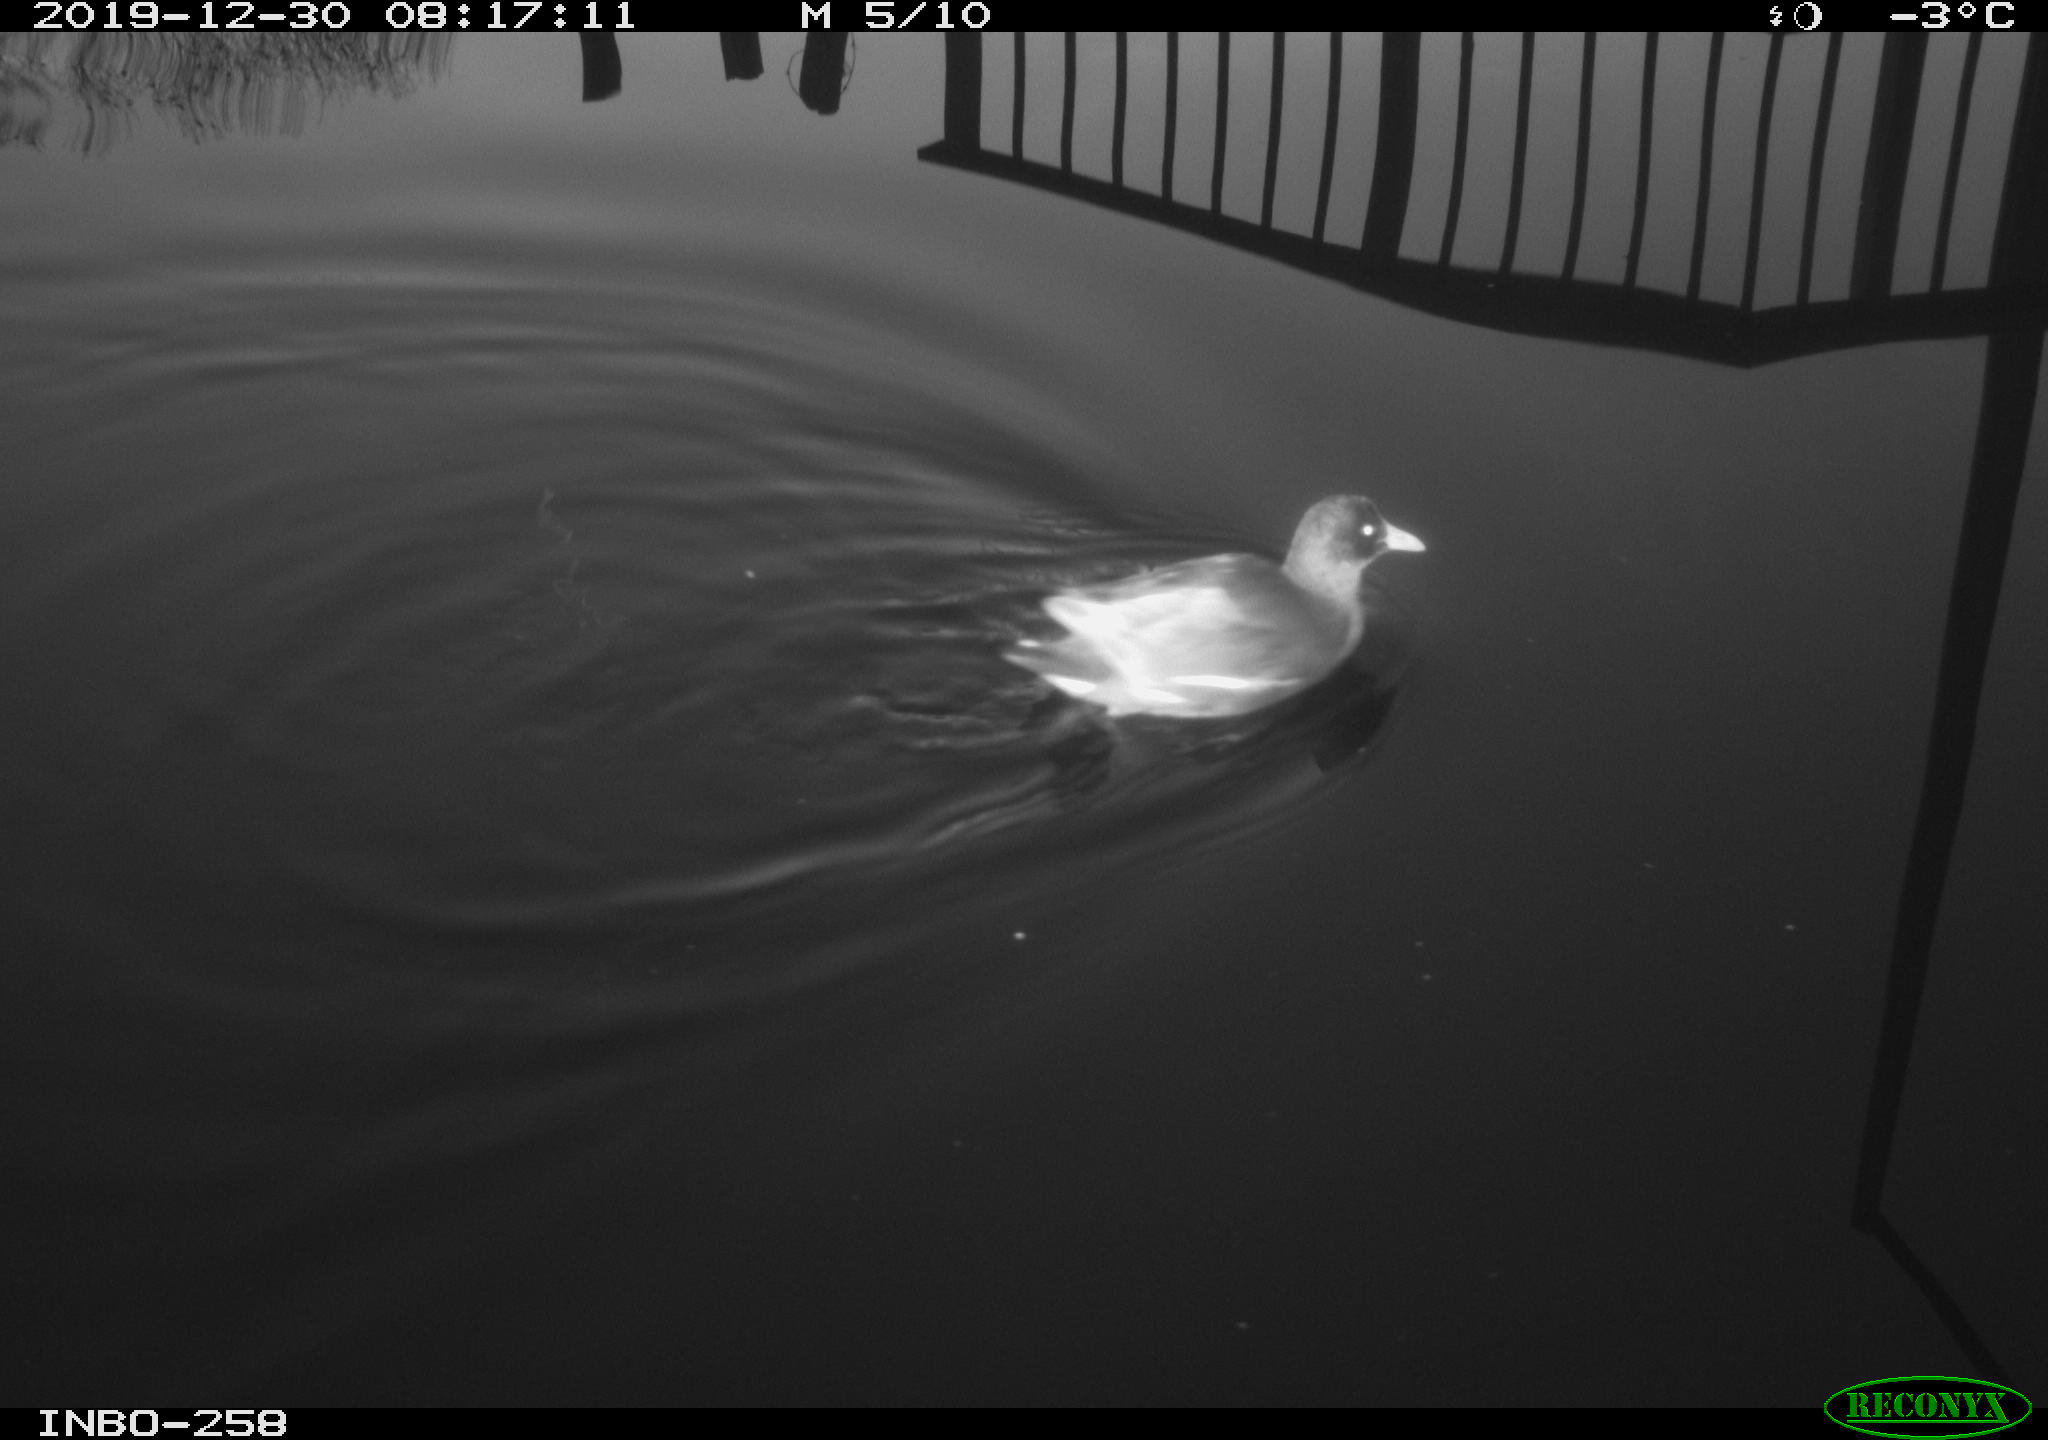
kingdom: Animalia
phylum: Chordata
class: Aves
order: Gruiformes
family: Rallidae
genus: Gallinula
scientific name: Gallinula chloropus
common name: Common moorhen
